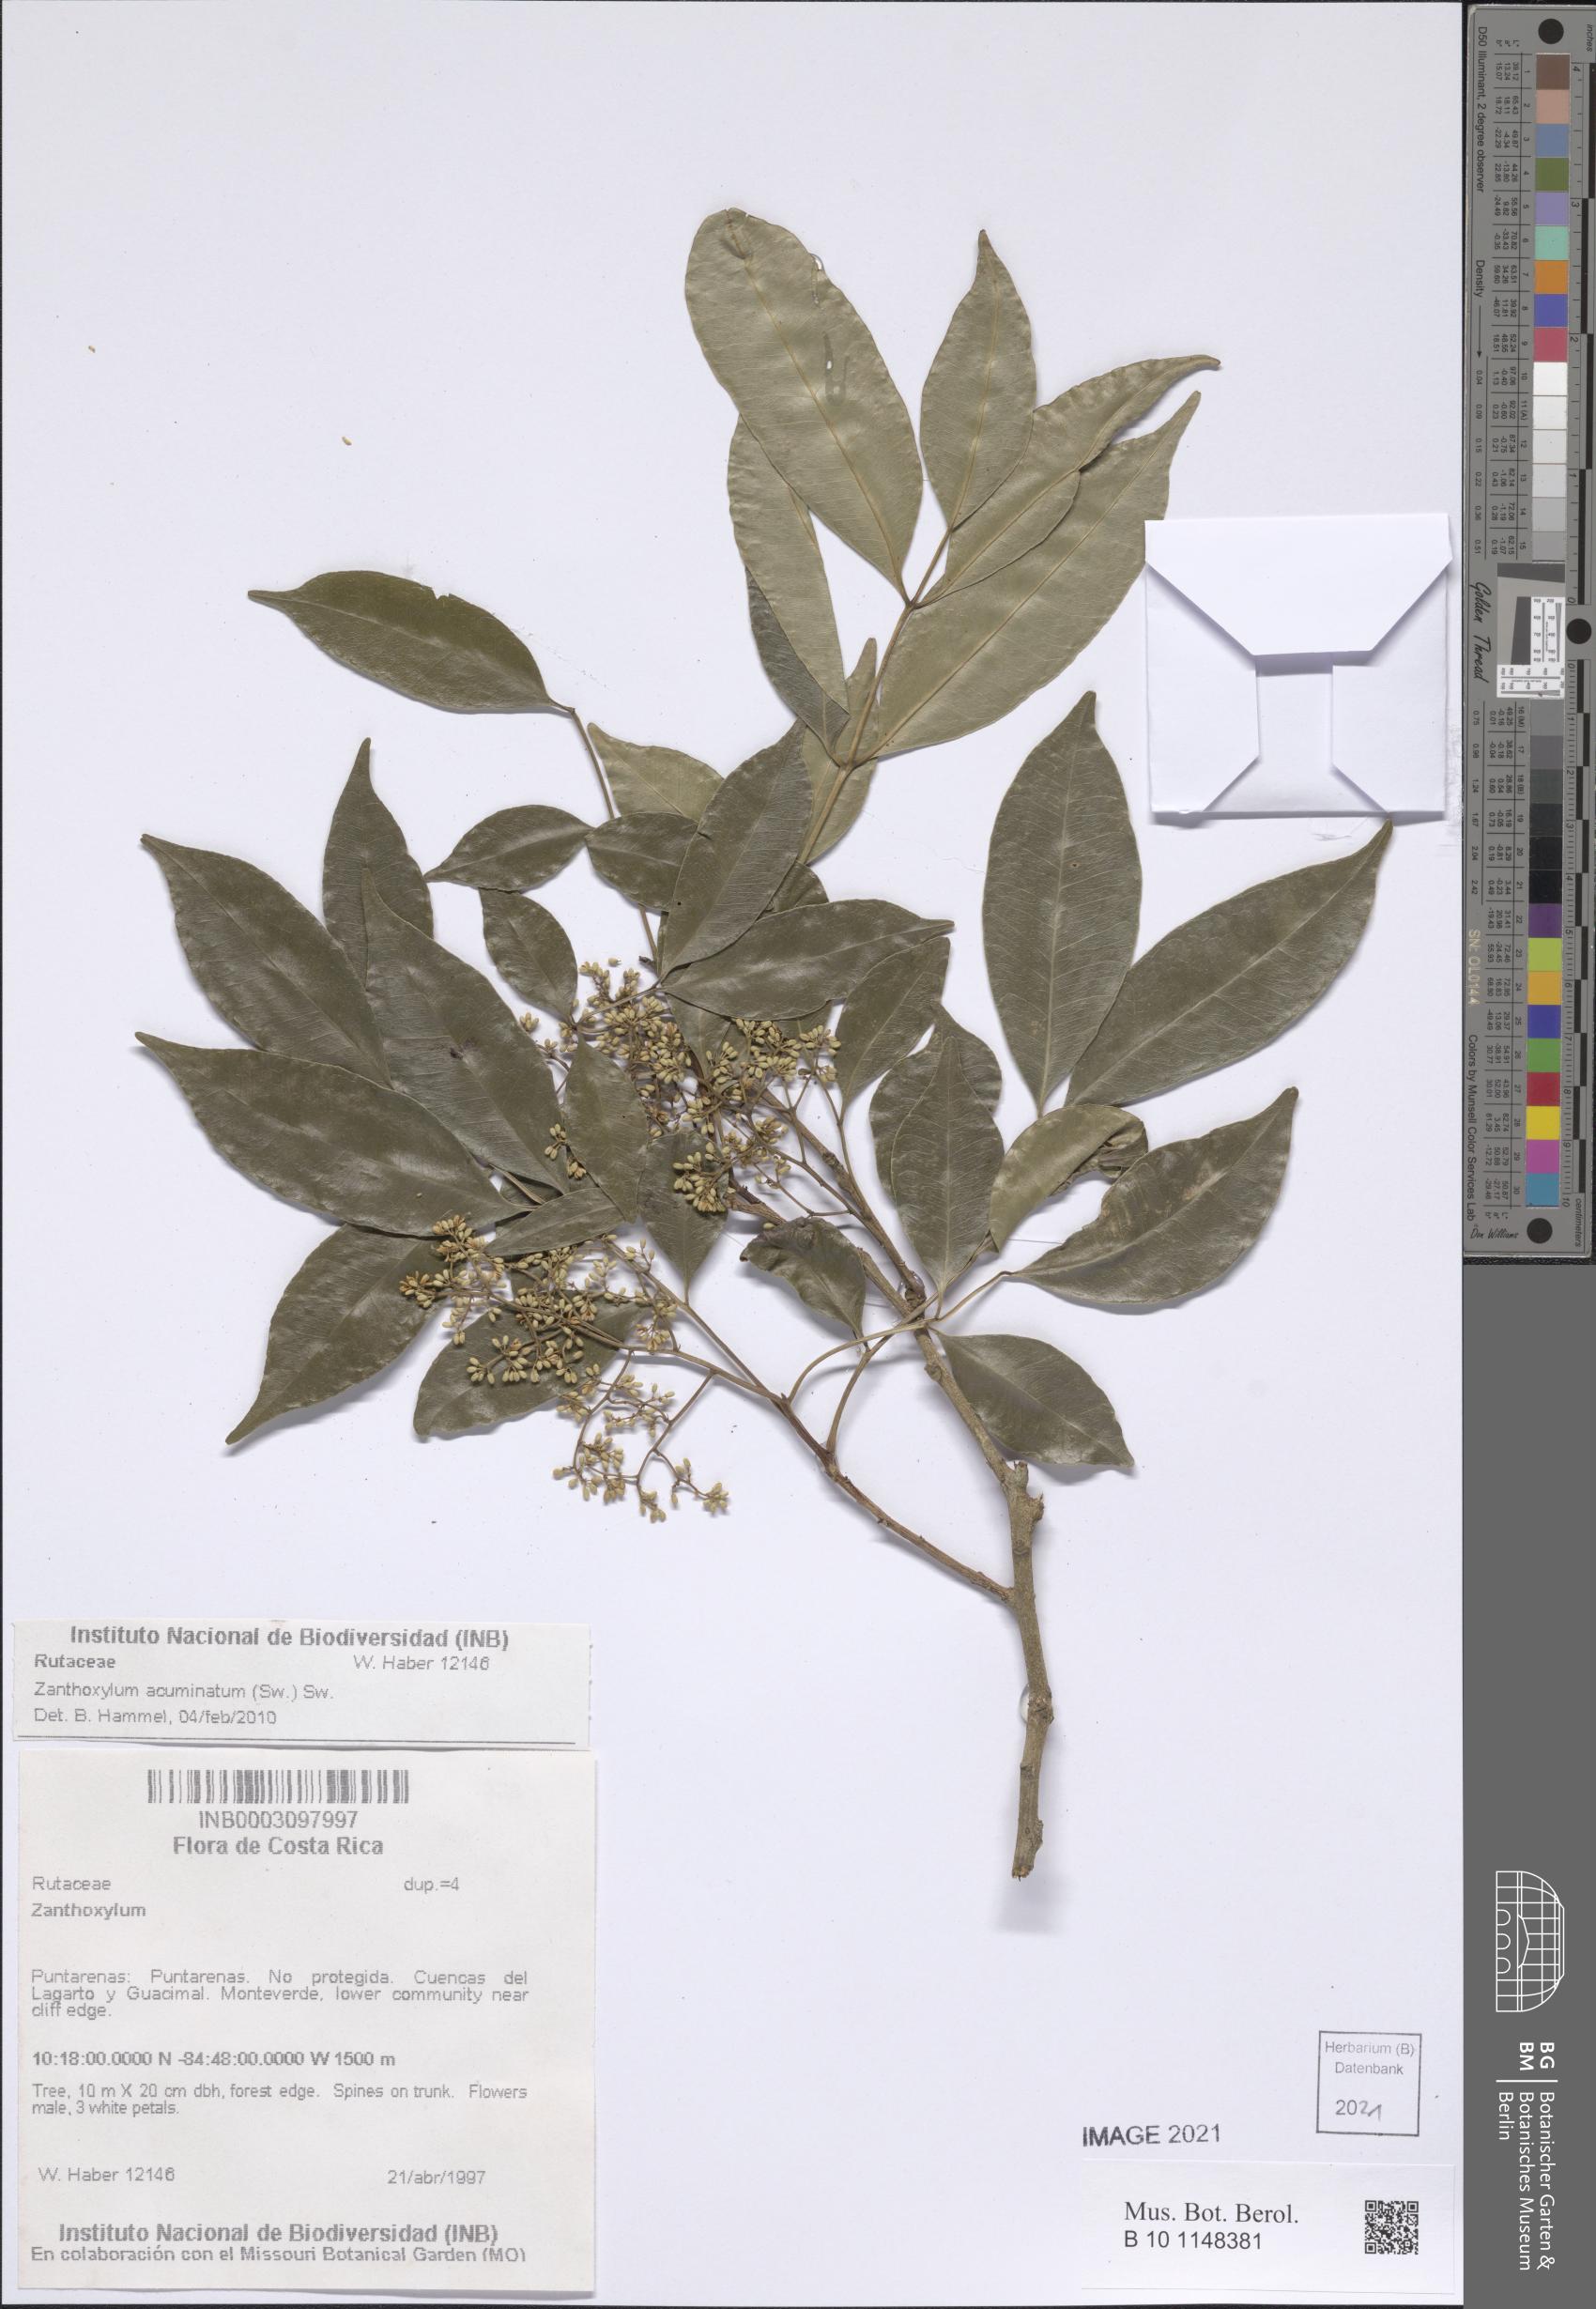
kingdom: Plantae
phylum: Tracheophyta
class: Magnoliopsida
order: Sapindales
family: Rutaceae
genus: Zanthoxylum
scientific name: Zanthoxylum acuminatum
